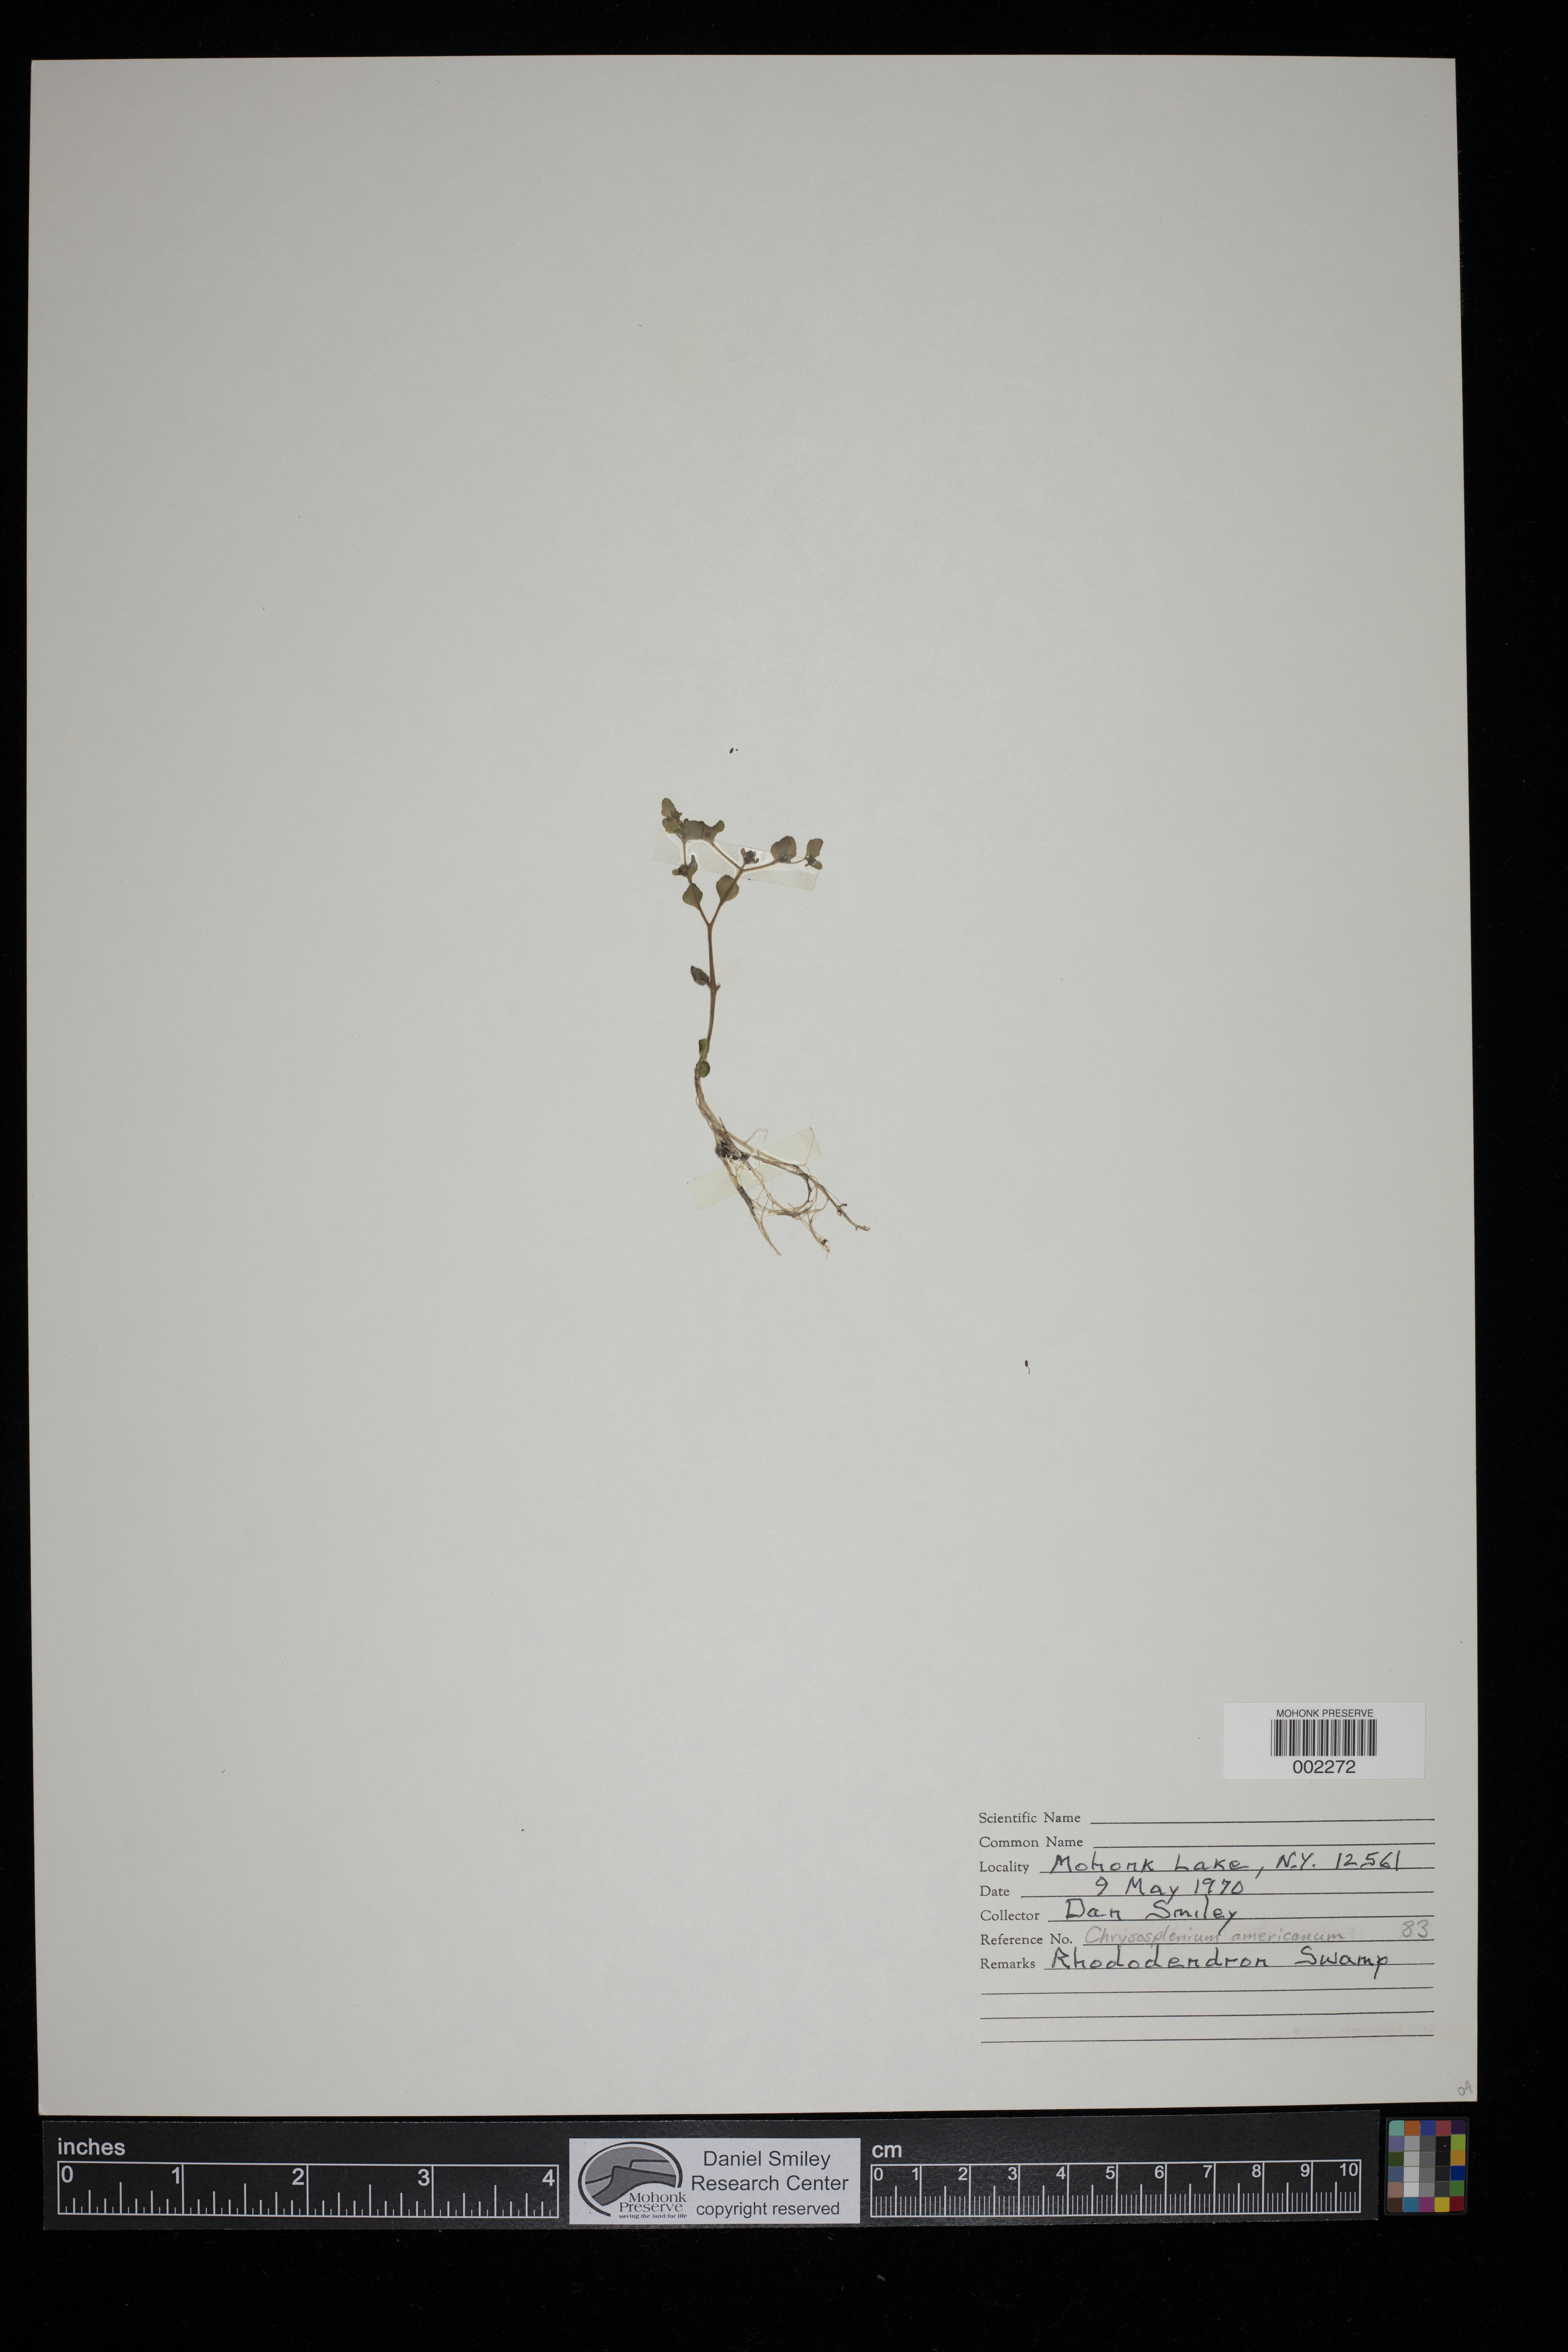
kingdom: Plantae
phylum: Tracheophyta
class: Magnoliopsida
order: Saxifragales
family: Saxifragaceae
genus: Chrysosplenium
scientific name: Chrysosplenium americanum
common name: American golden-saxifrage
